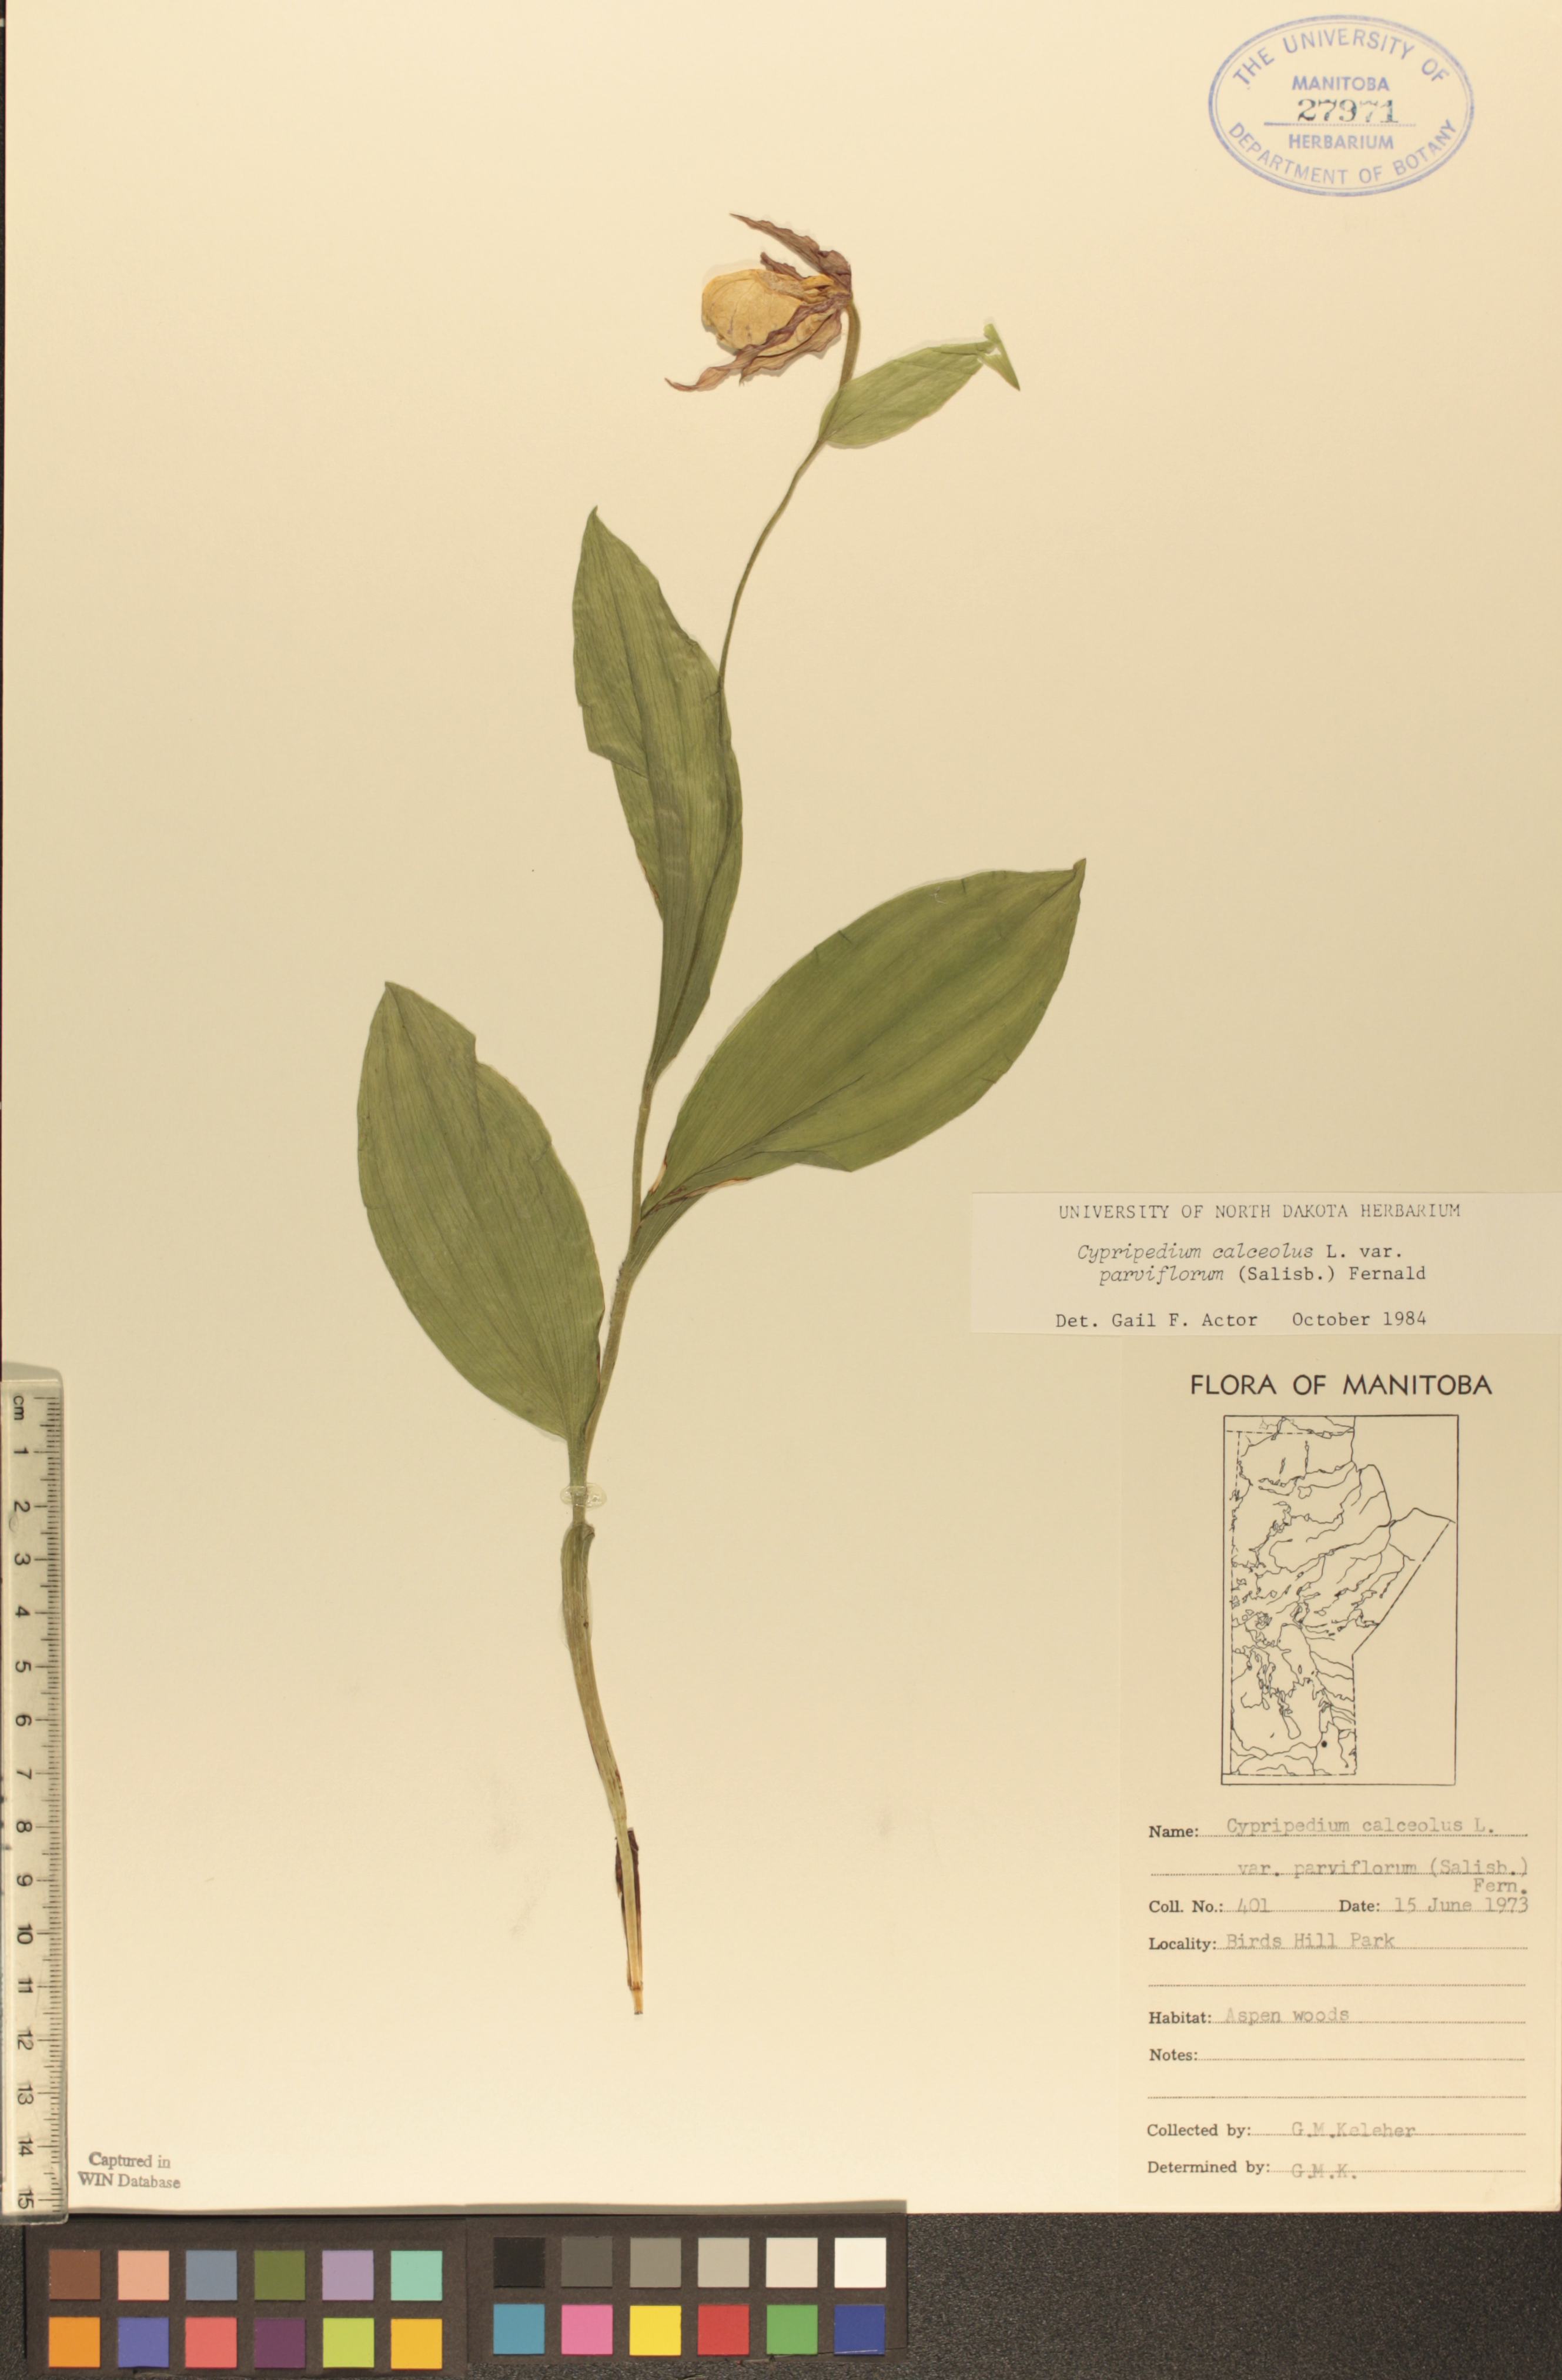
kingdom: Plantae
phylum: Tracheophyta
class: Liliopsida
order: Asparagales
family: Orchidaceae
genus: Cypripedium
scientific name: Cypripedium parviflorum
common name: American yellow lady's-slipper
